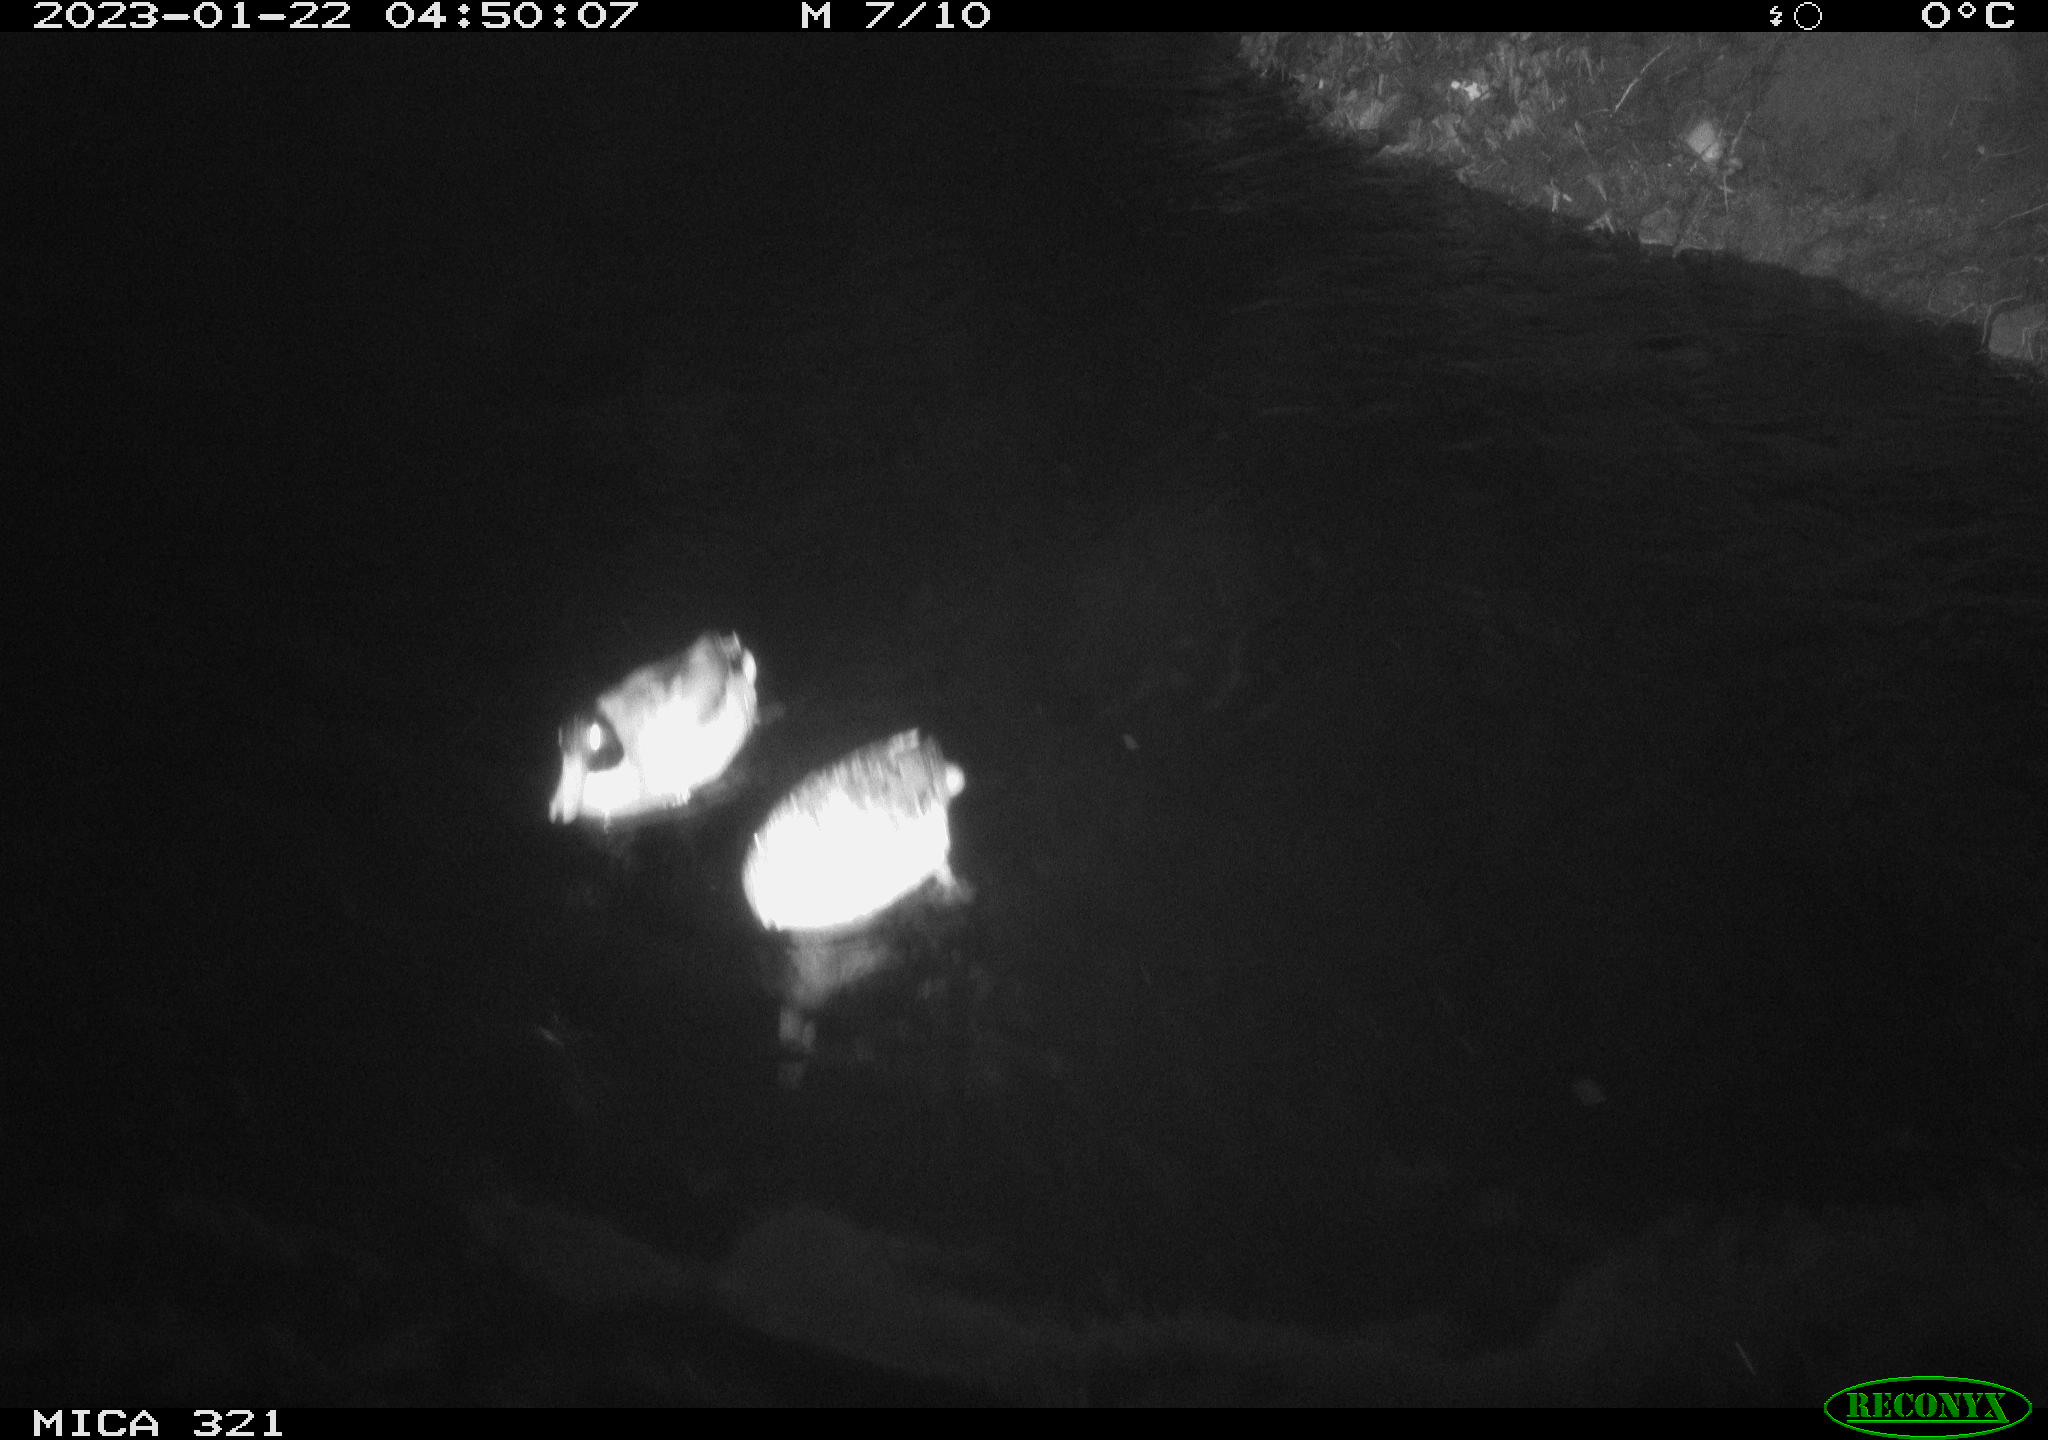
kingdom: Animalia
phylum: Chordata
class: Mammalia
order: Rodentia
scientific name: Rodentia
